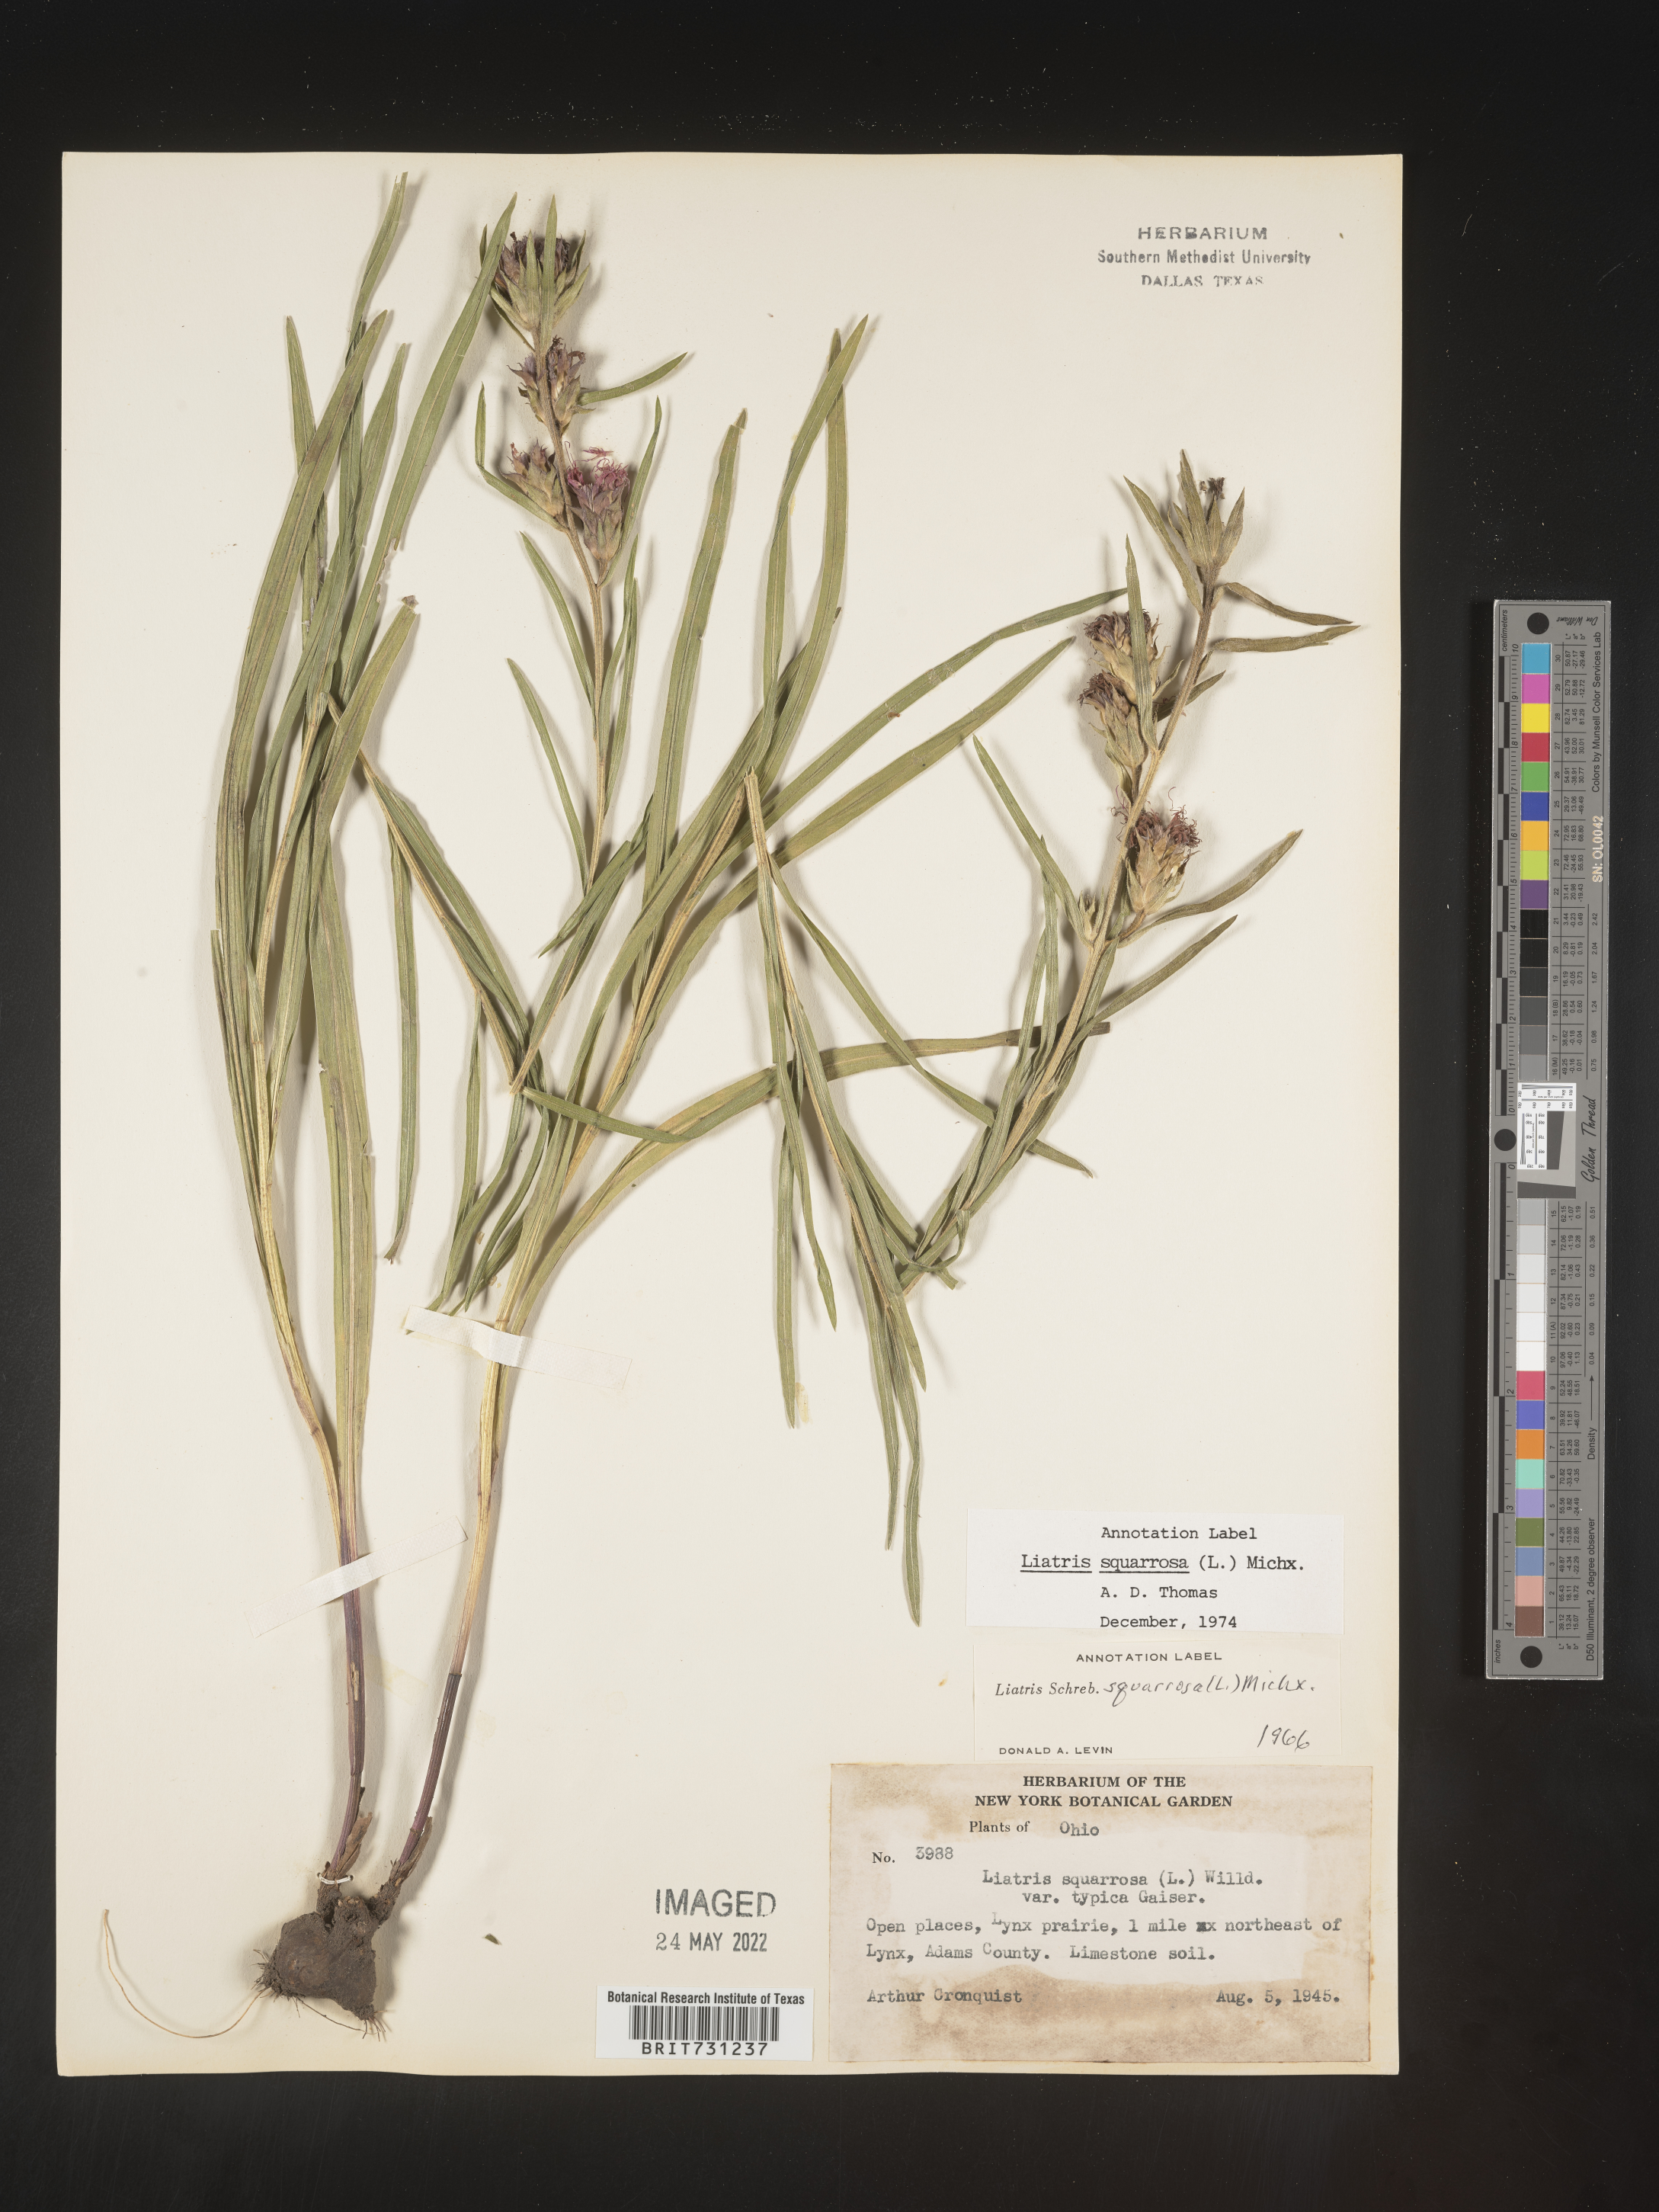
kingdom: Plantae
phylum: Tracheophyta
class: Magnoliopsida
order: Asterales
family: Asteraceae
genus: Liatris
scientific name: Liatris squarrosa
